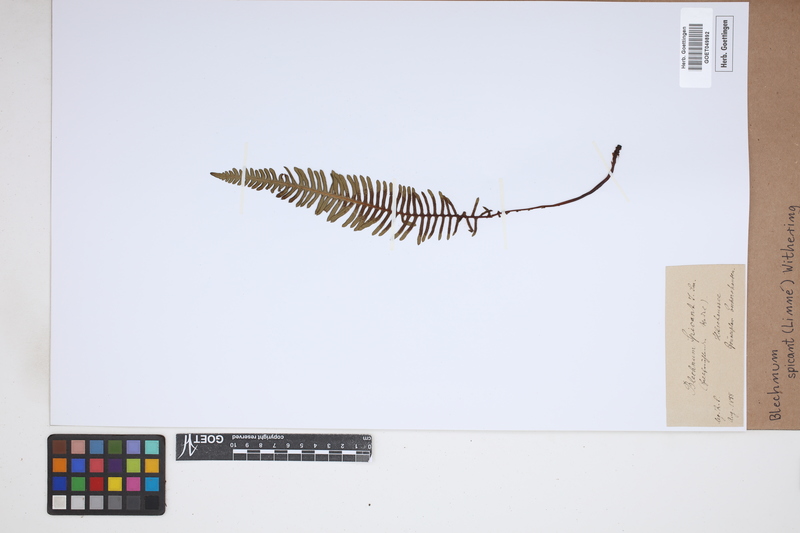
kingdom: Plantae
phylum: Tracheophyta
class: Polypodiopsida
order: Polypodiales
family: Blechnaceae
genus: Struthiopteris
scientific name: Struthiopteris spicant
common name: Deer fern
